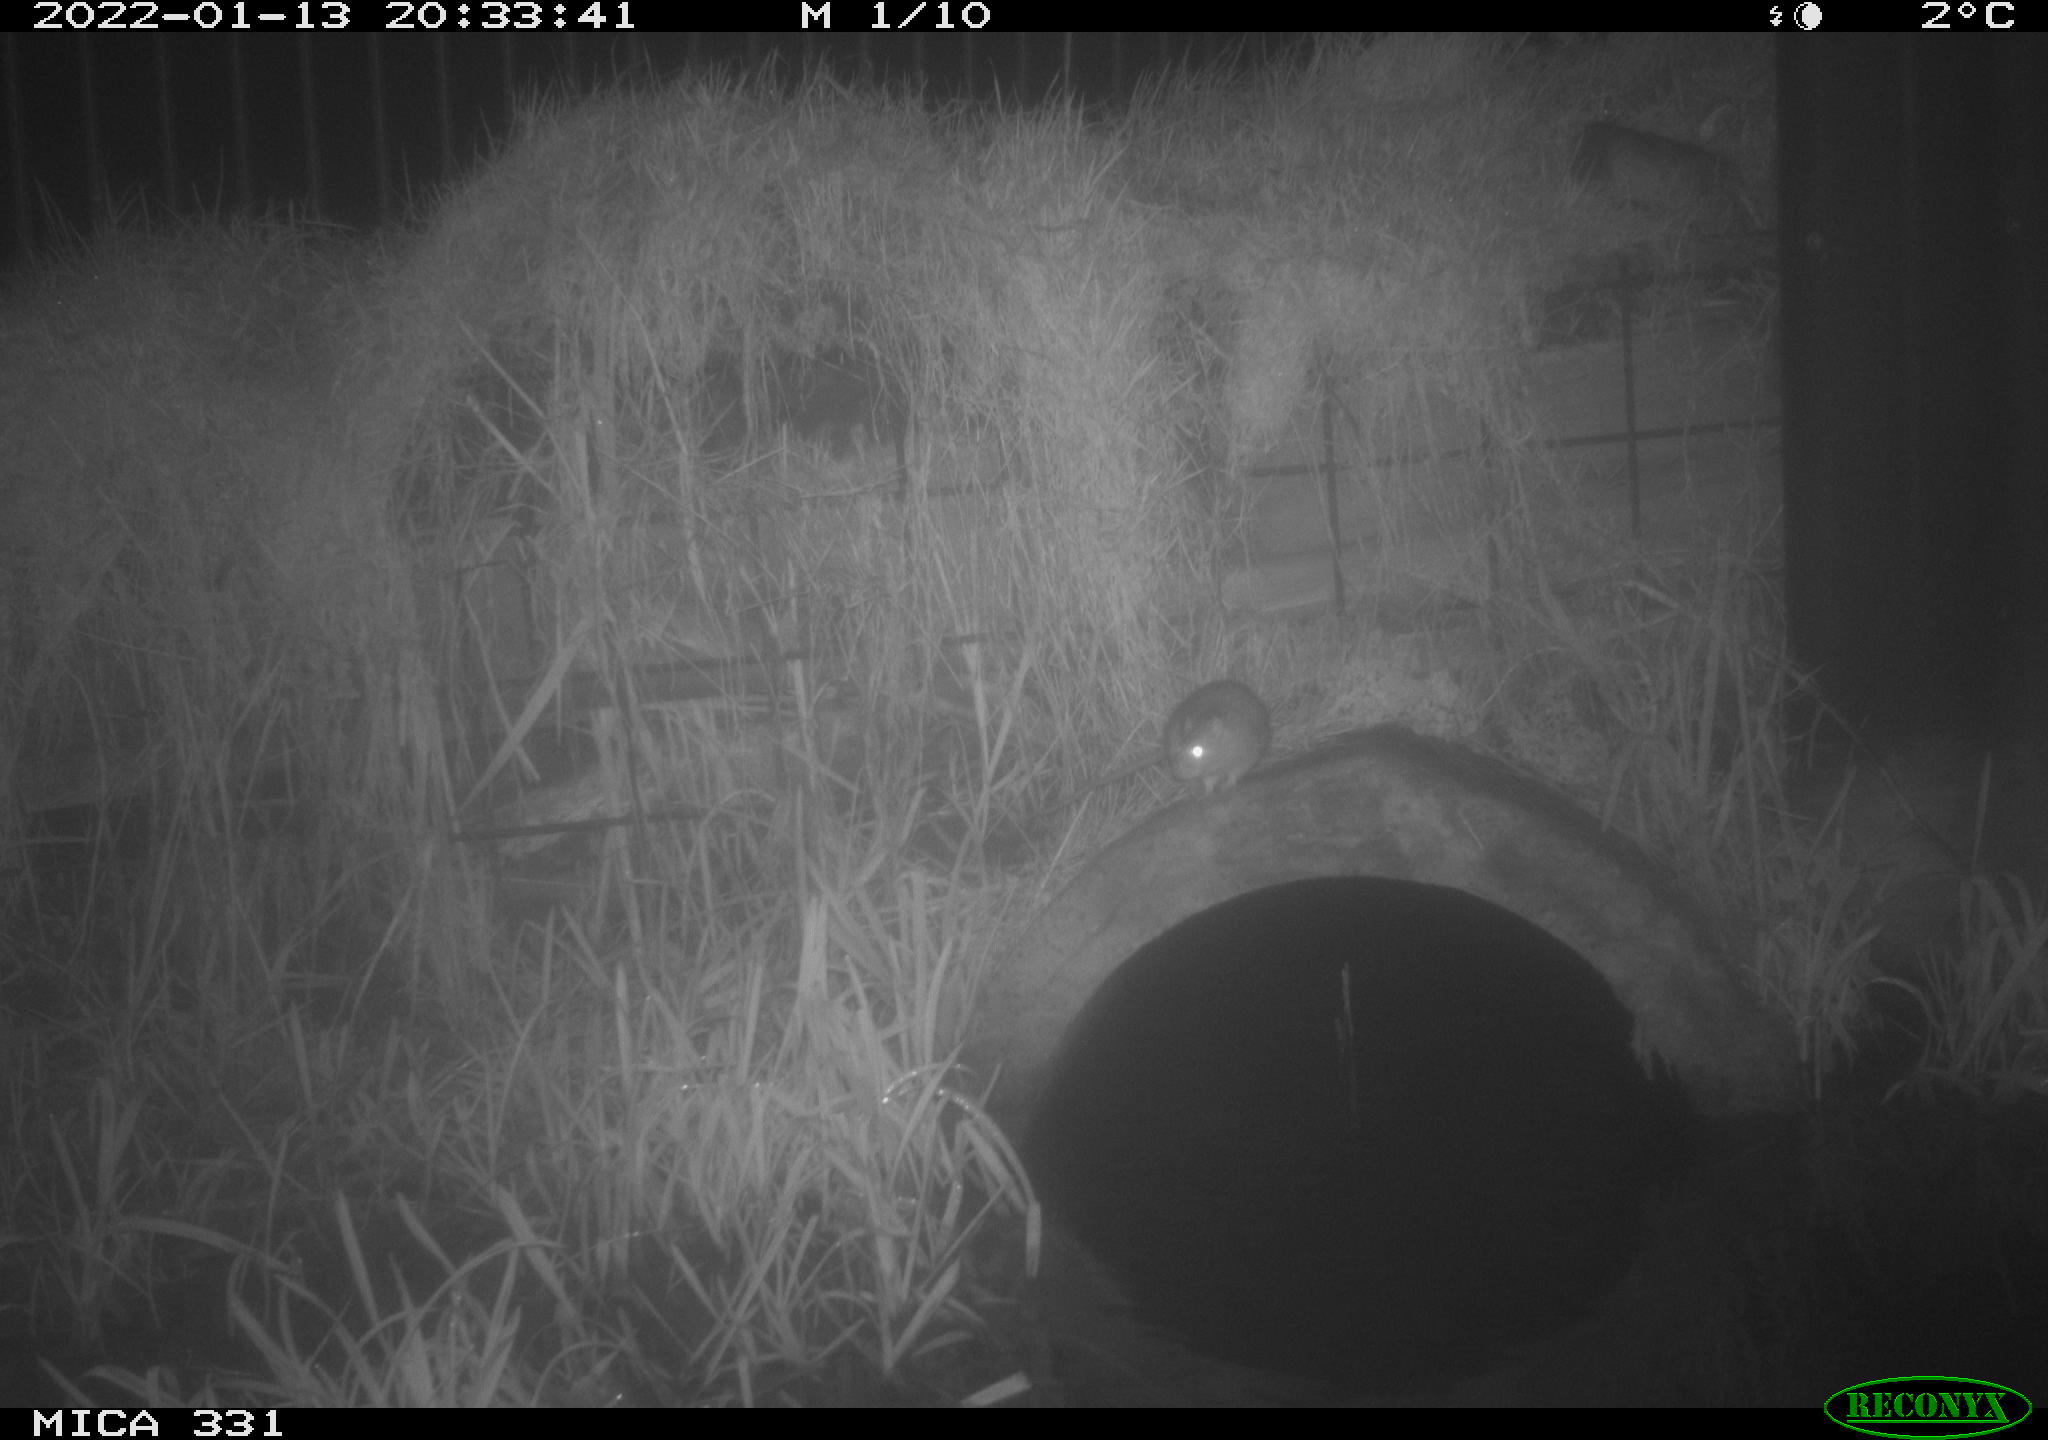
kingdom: Animalia
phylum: Chordata
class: Mammalia
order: Rodentia
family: Muridae
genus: Rattus
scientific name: Rattus norvegicus
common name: Brown rat
